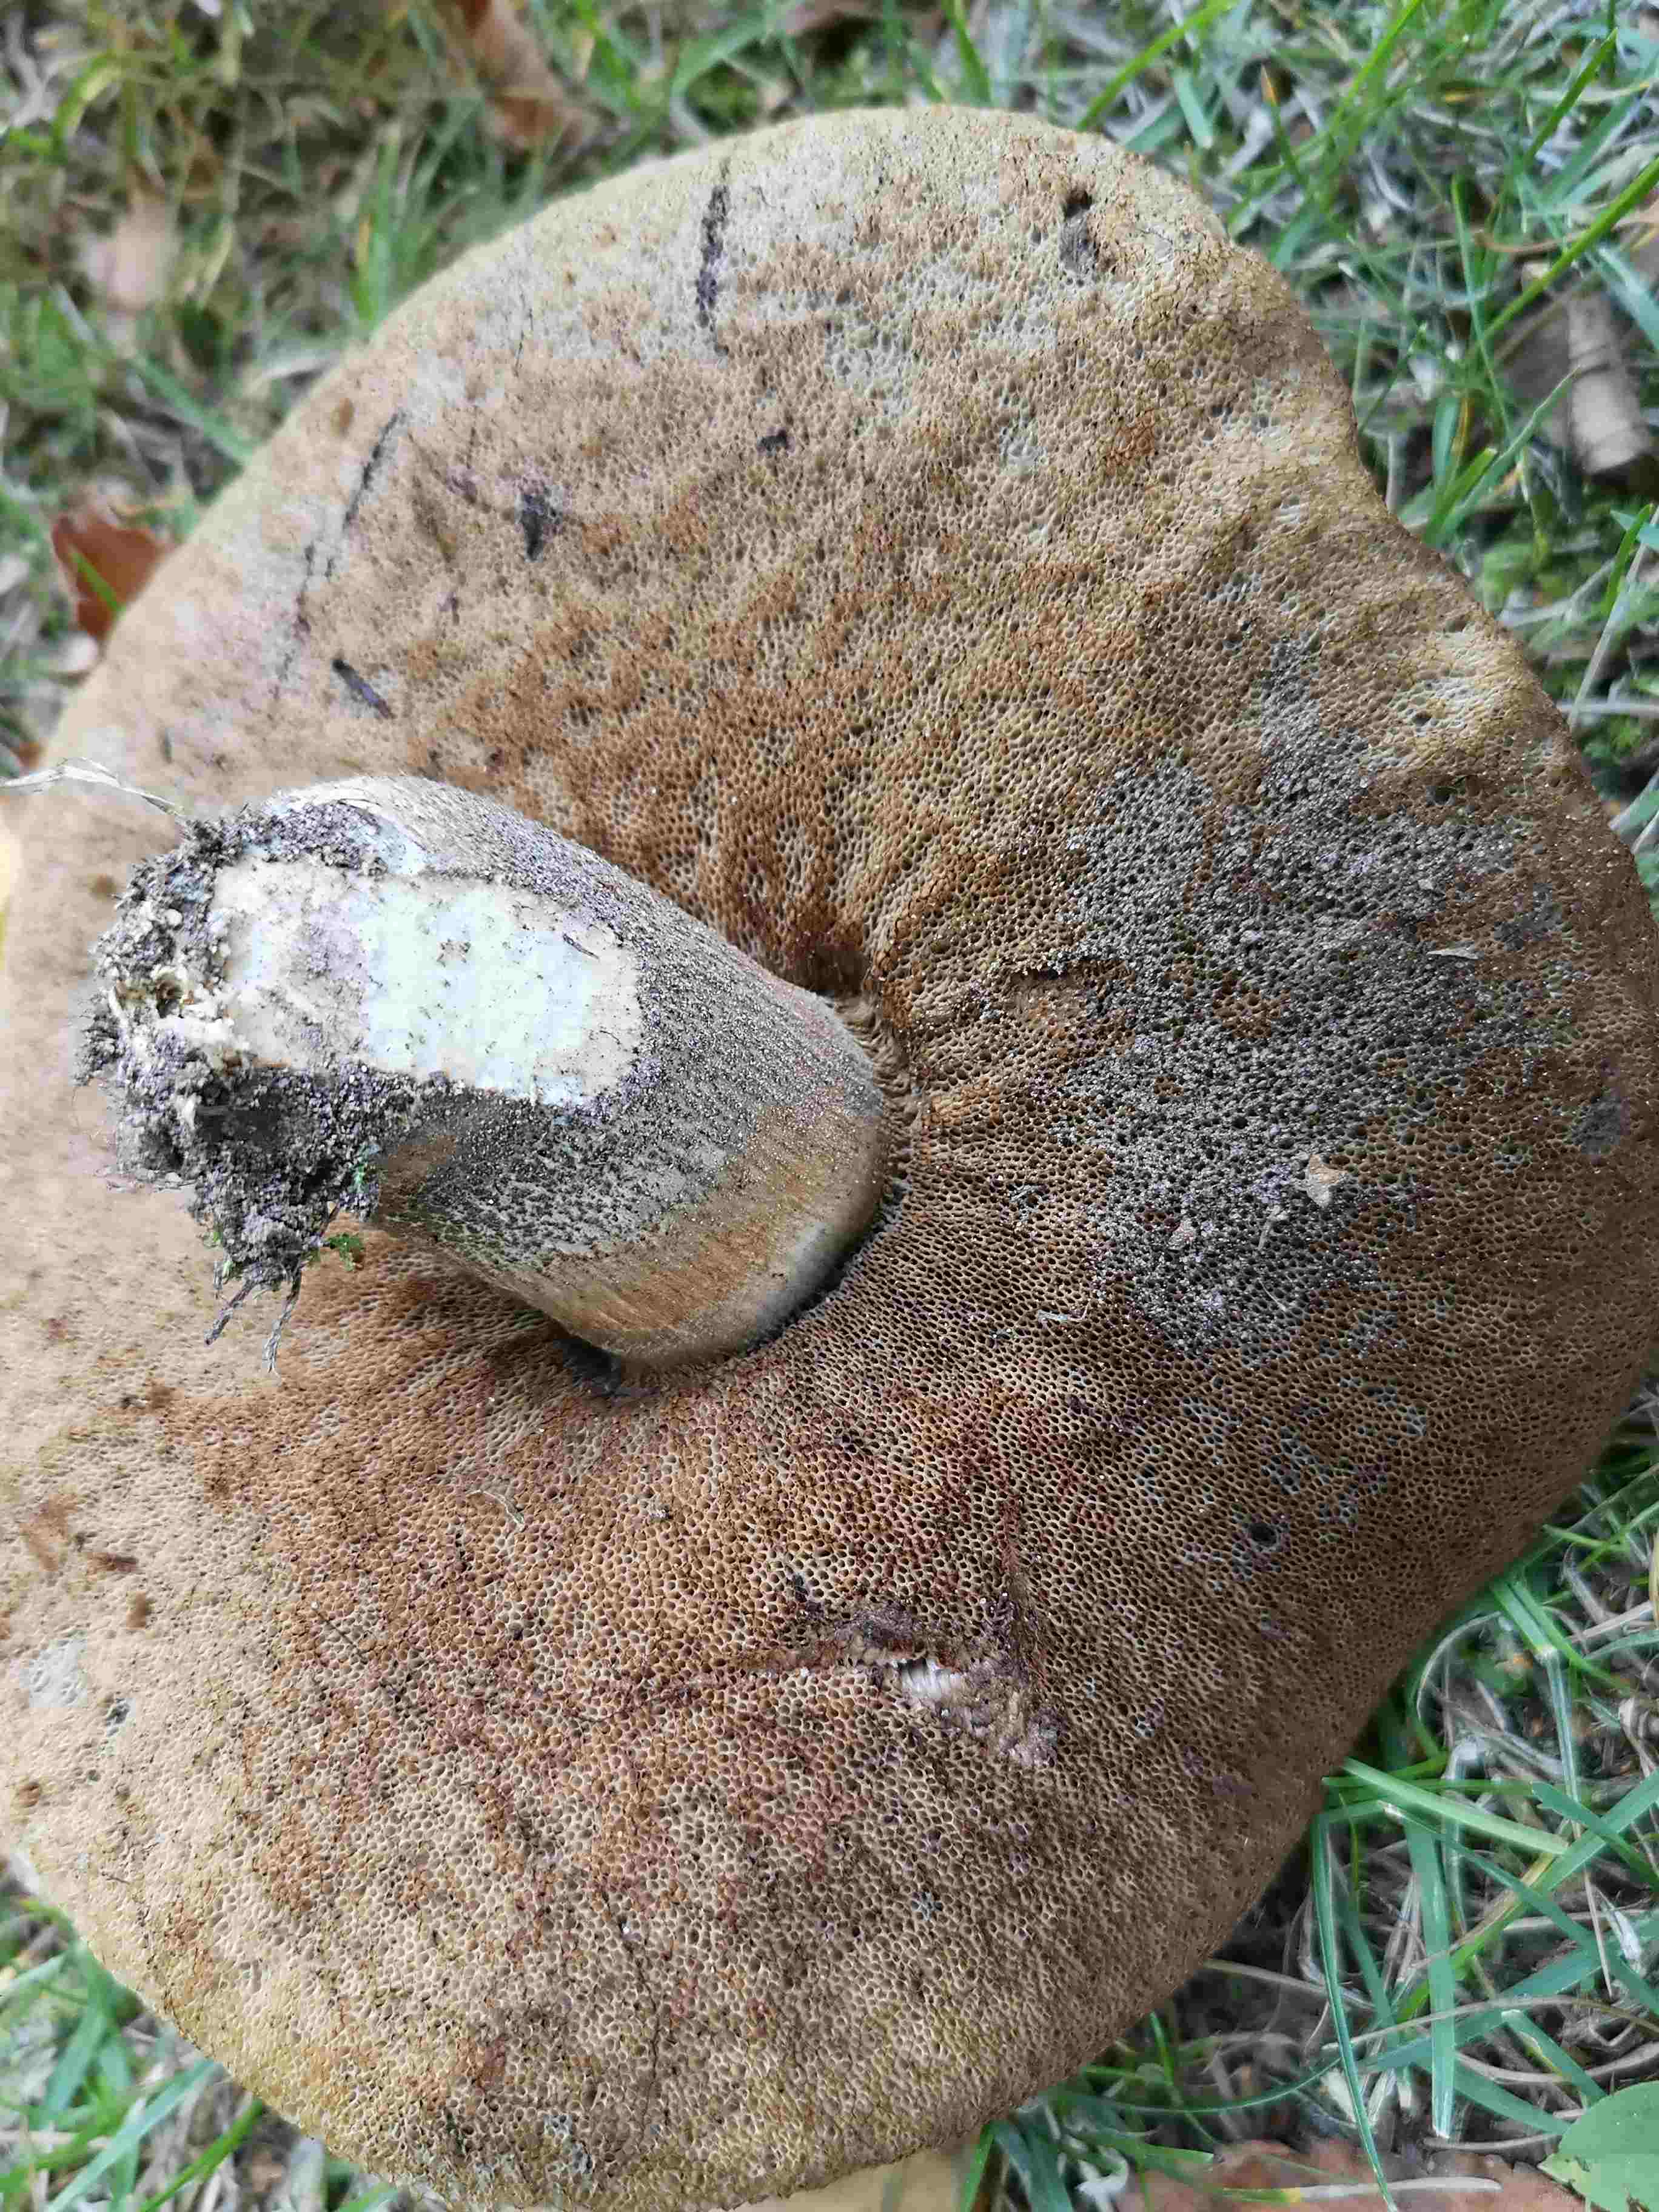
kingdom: Fungi
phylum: Basidiomycota
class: Agaricomycetes
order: Boletales
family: Boletaceae
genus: Leccinum
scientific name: Leccinum scabrum
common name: brun skælrørhat
